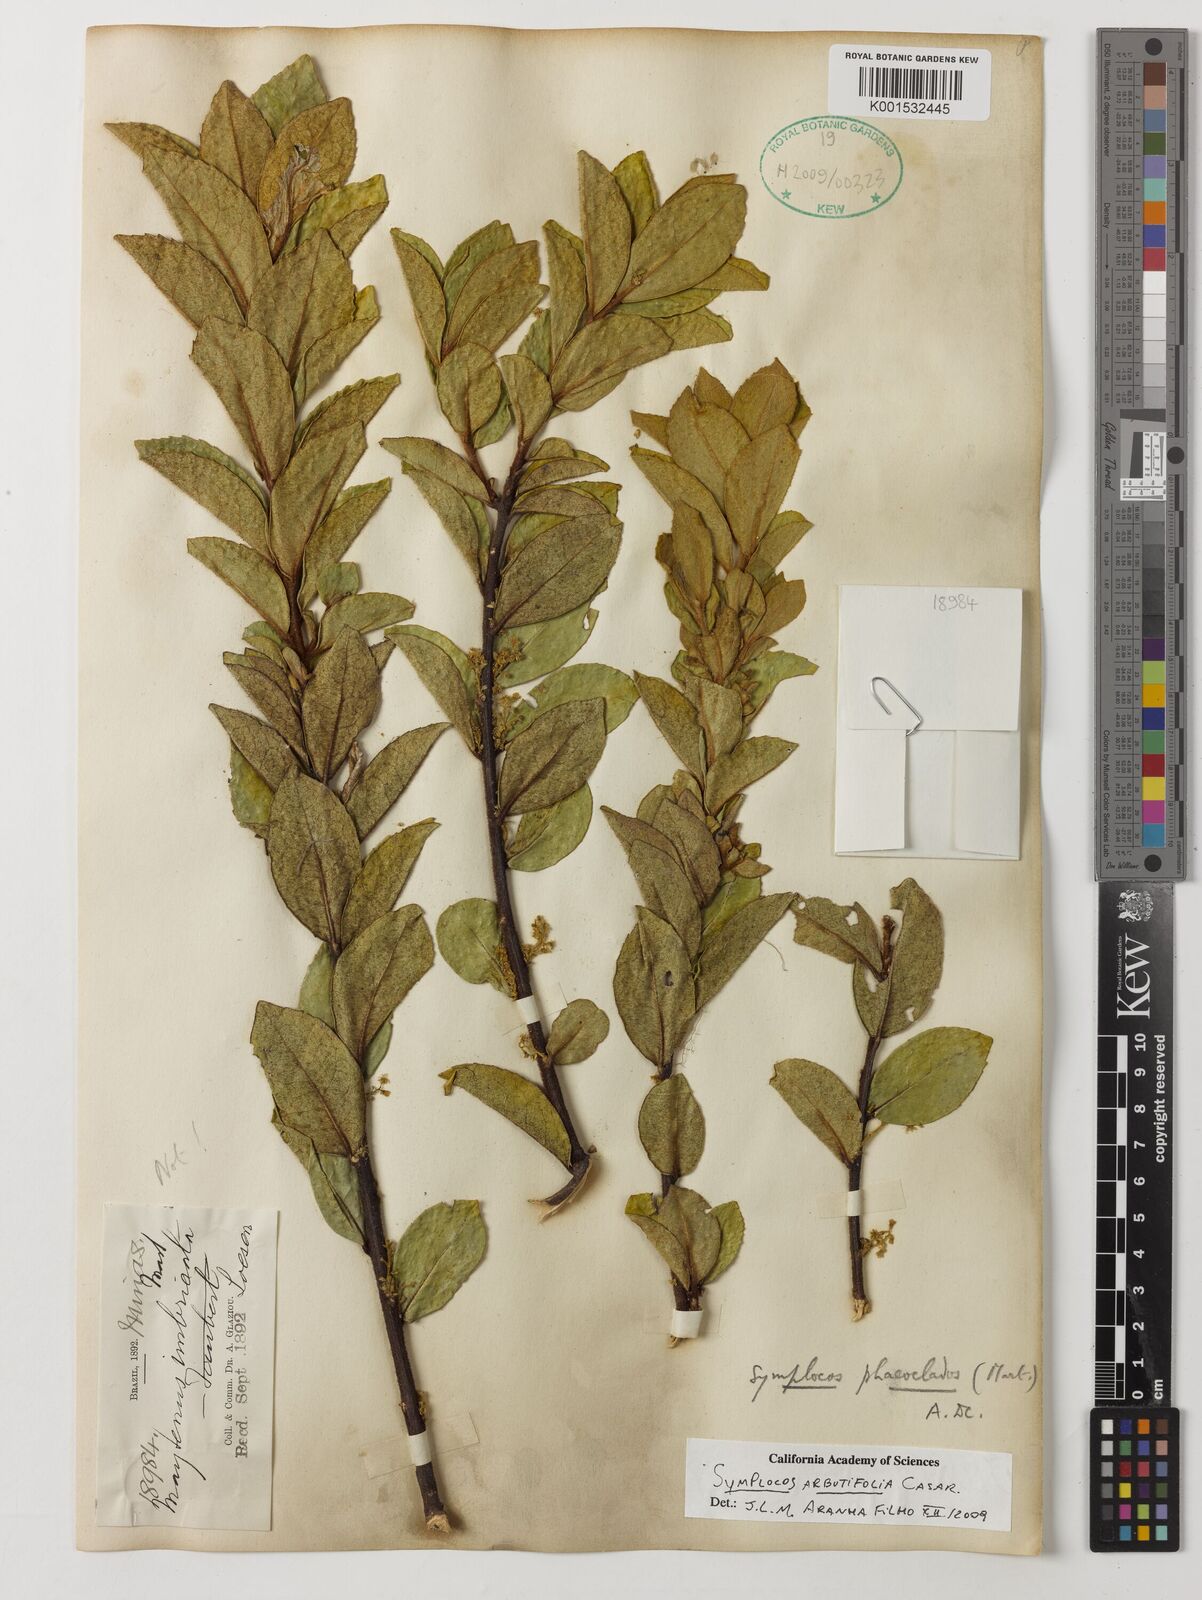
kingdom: Plantae
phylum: Tracheophyta
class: Magnoliopsida
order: Ericales
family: Symplocaceae
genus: Symplocos
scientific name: Symplocos arbutifolia
